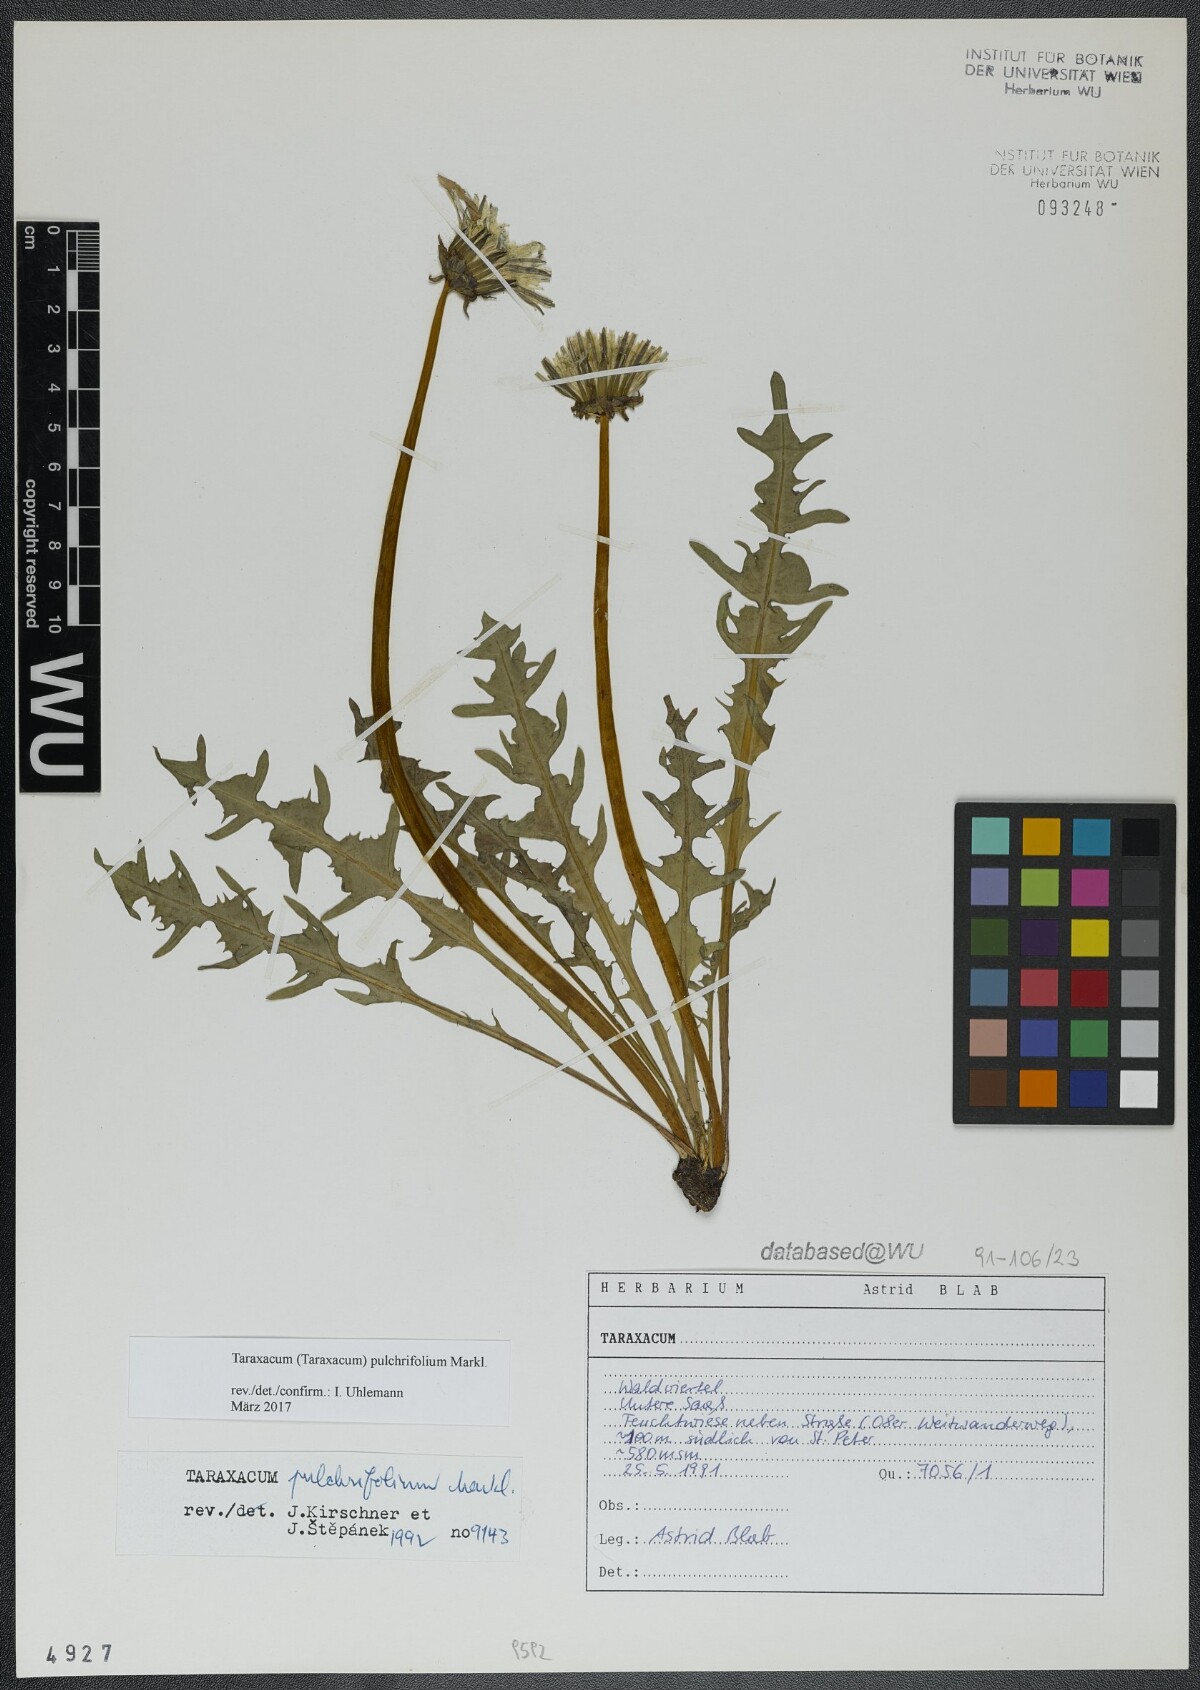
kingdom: Plantae
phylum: Tracheophyta
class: Magnoliopsida
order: Asterales
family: Asteraceae
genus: Taraxacum
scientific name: Taraxacum pulchrifolium
